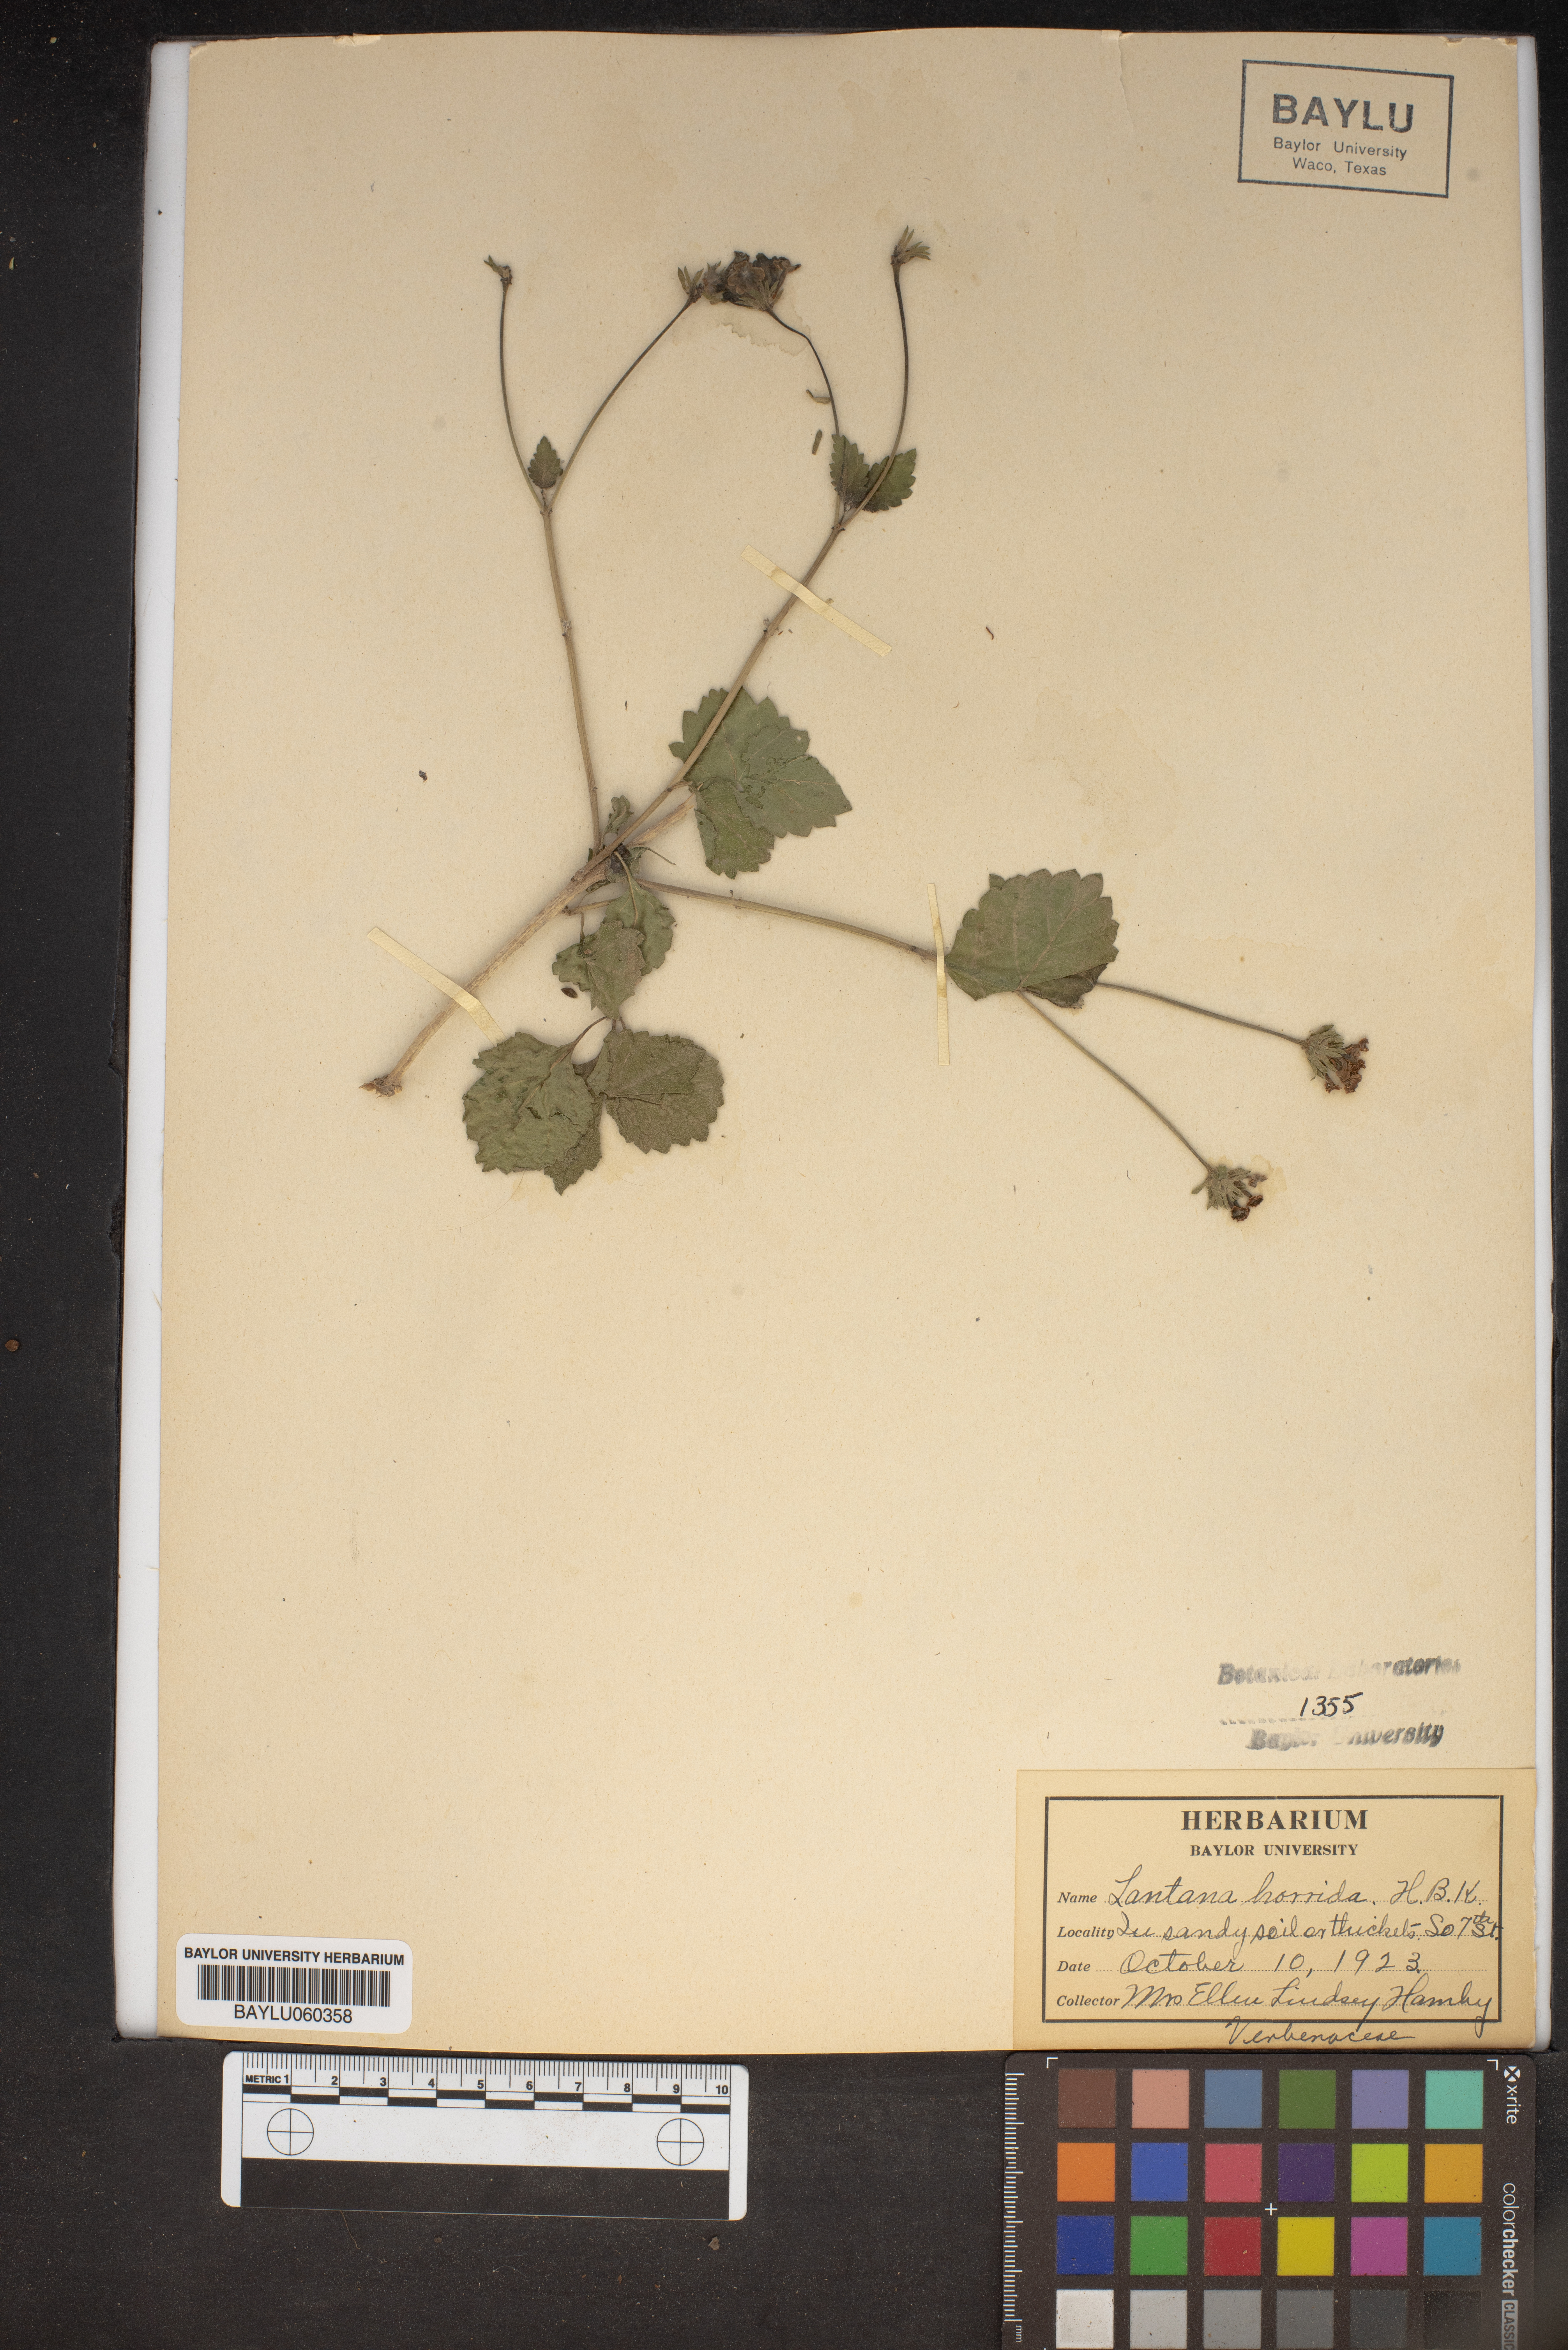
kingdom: Plantae
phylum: Tracheophyta
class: Magnoliopsida
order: Lamiales
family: Verbenaceae
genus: Lantana
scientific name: Lantana horrida
